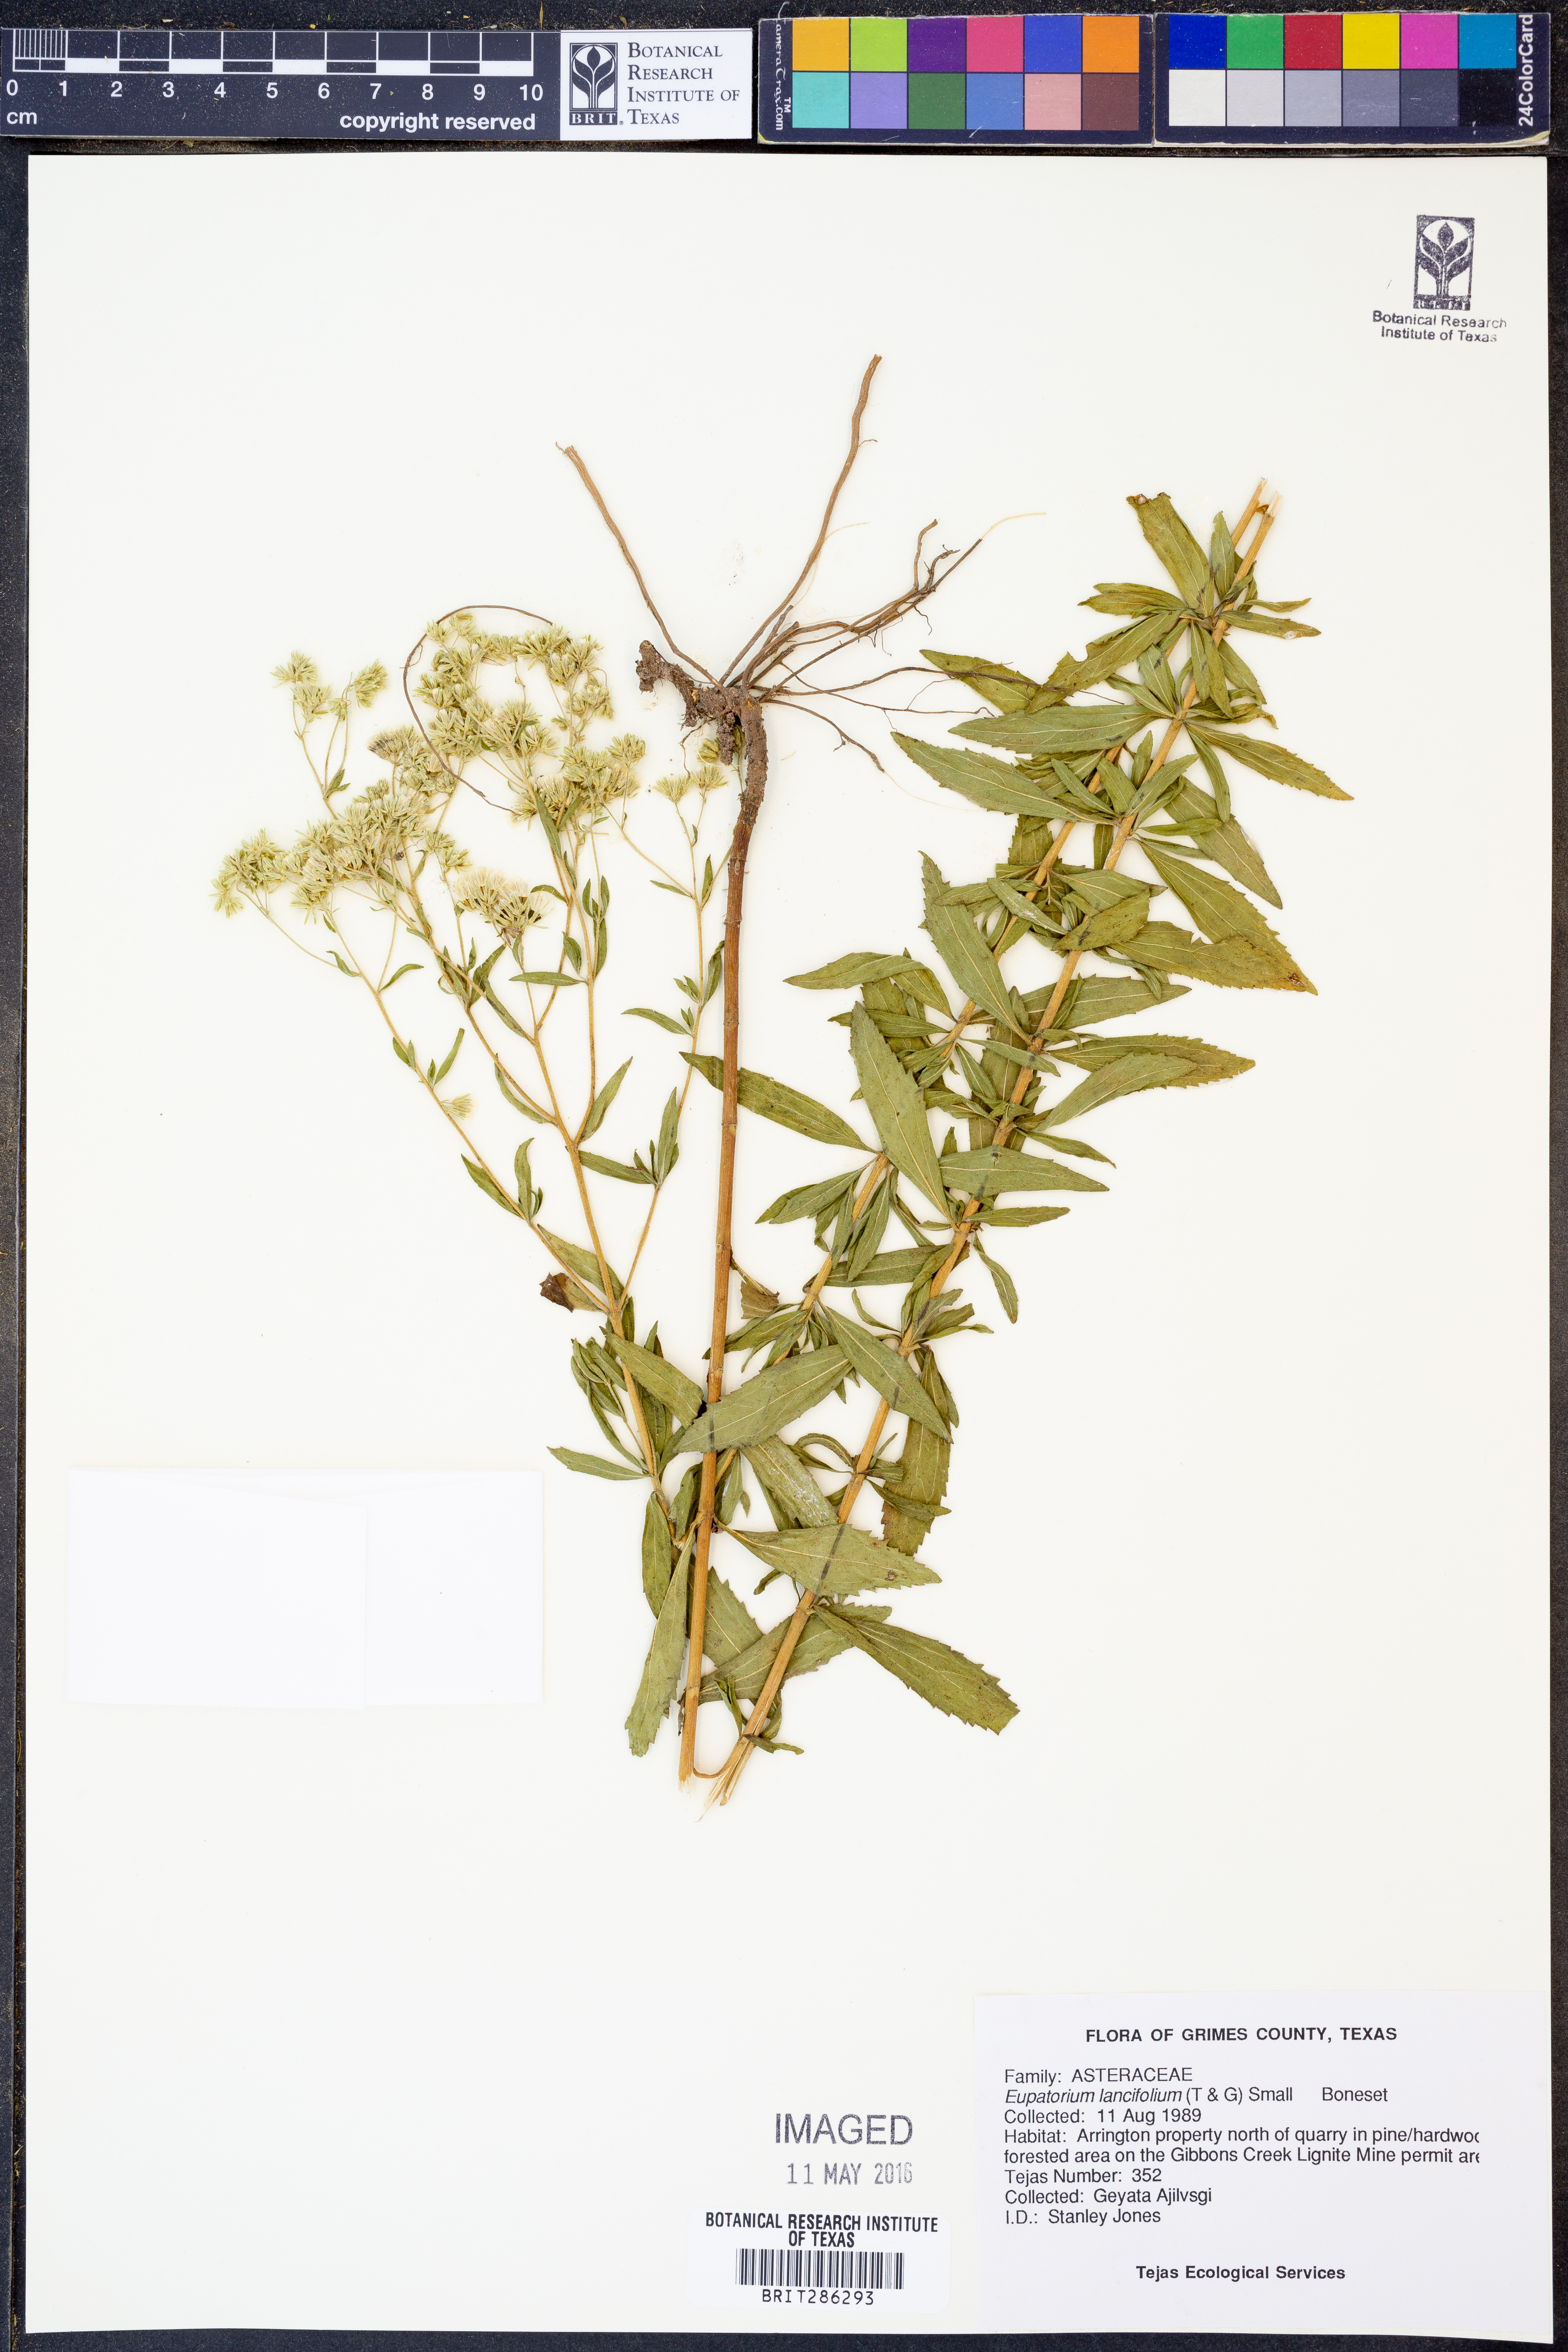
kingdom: Plantae
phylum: Tracheophyta
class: Magnoliopsida
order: Asterales
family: Asteraceae
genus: Eupatorium
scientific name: Eupatorium lancifolium
